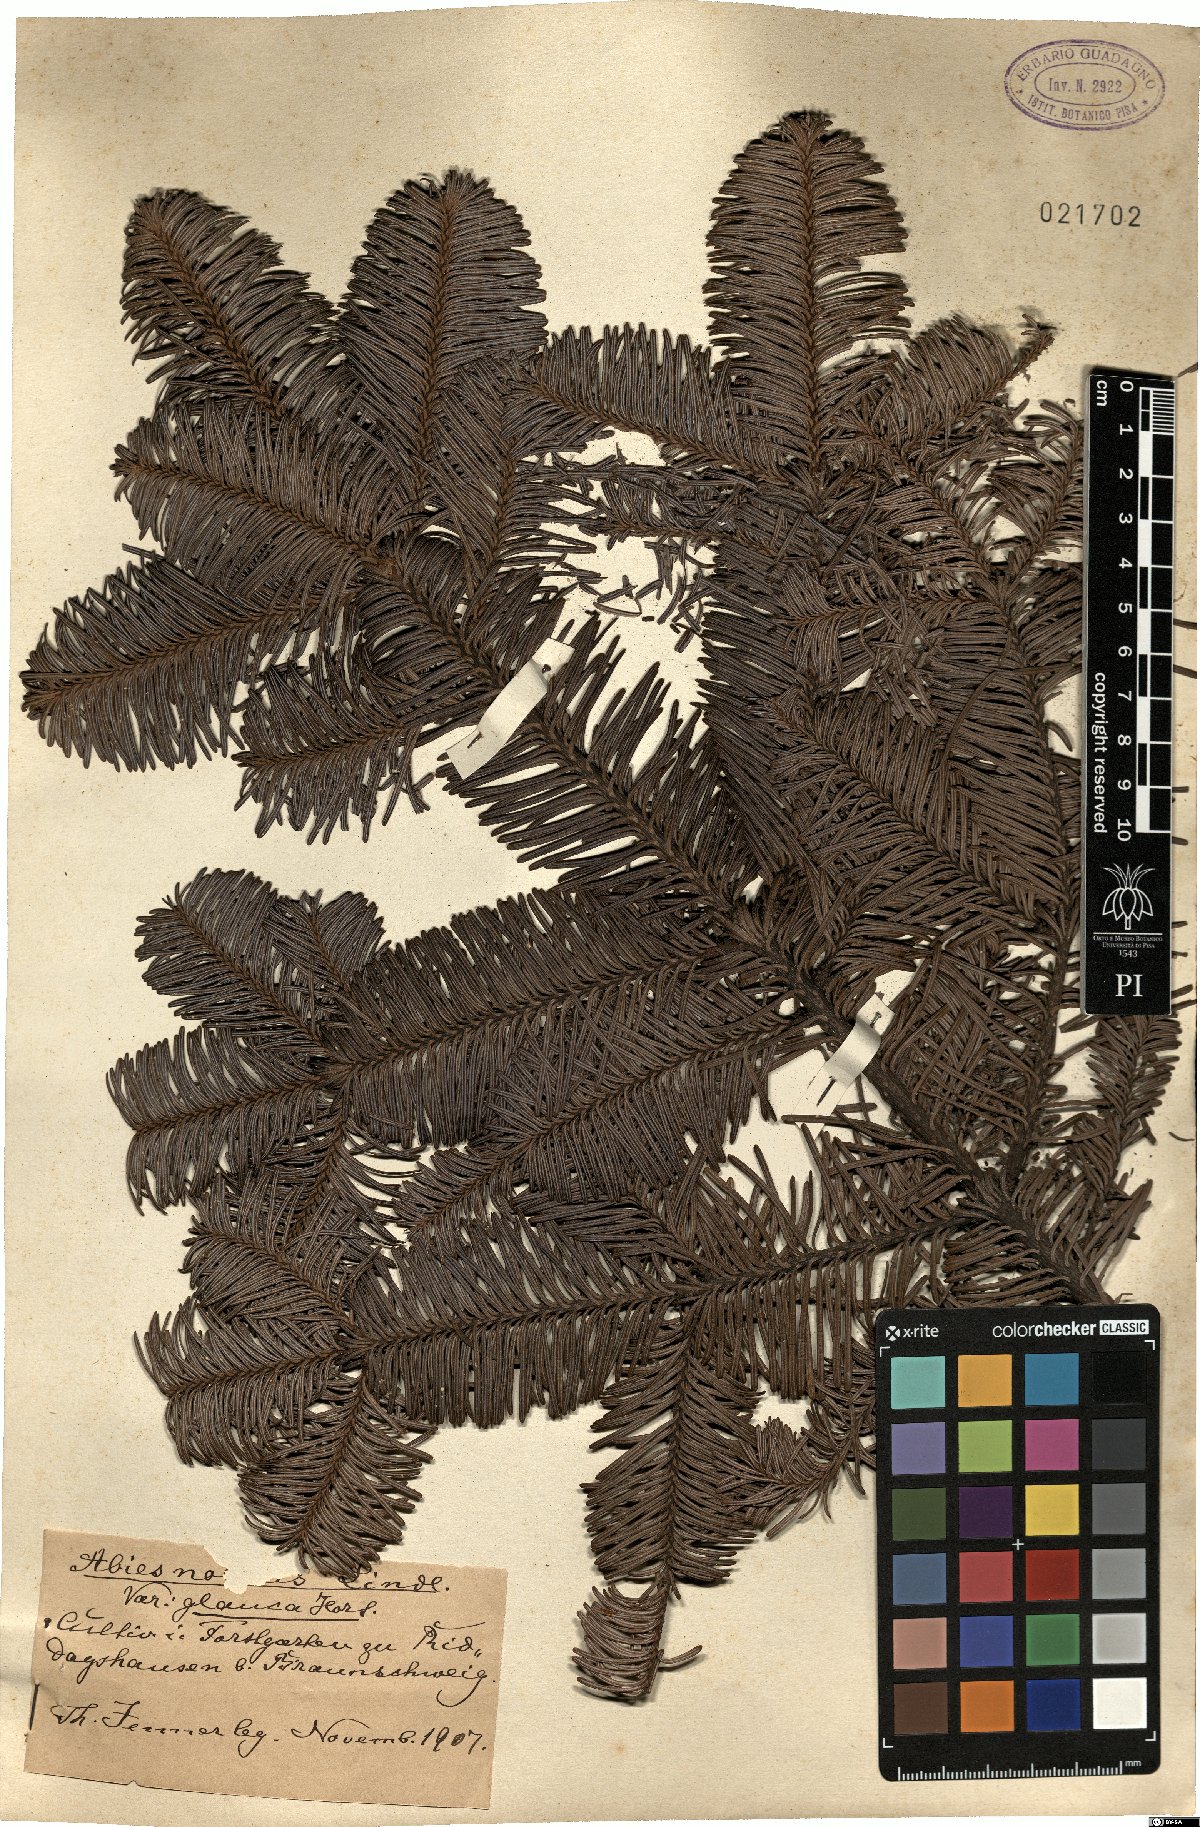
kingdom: Plantae
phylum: Tracheophyta
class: Pinopsida
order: Pinales
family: Pinaceae
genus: Abies
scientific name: Abies alba
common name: Silver fir
